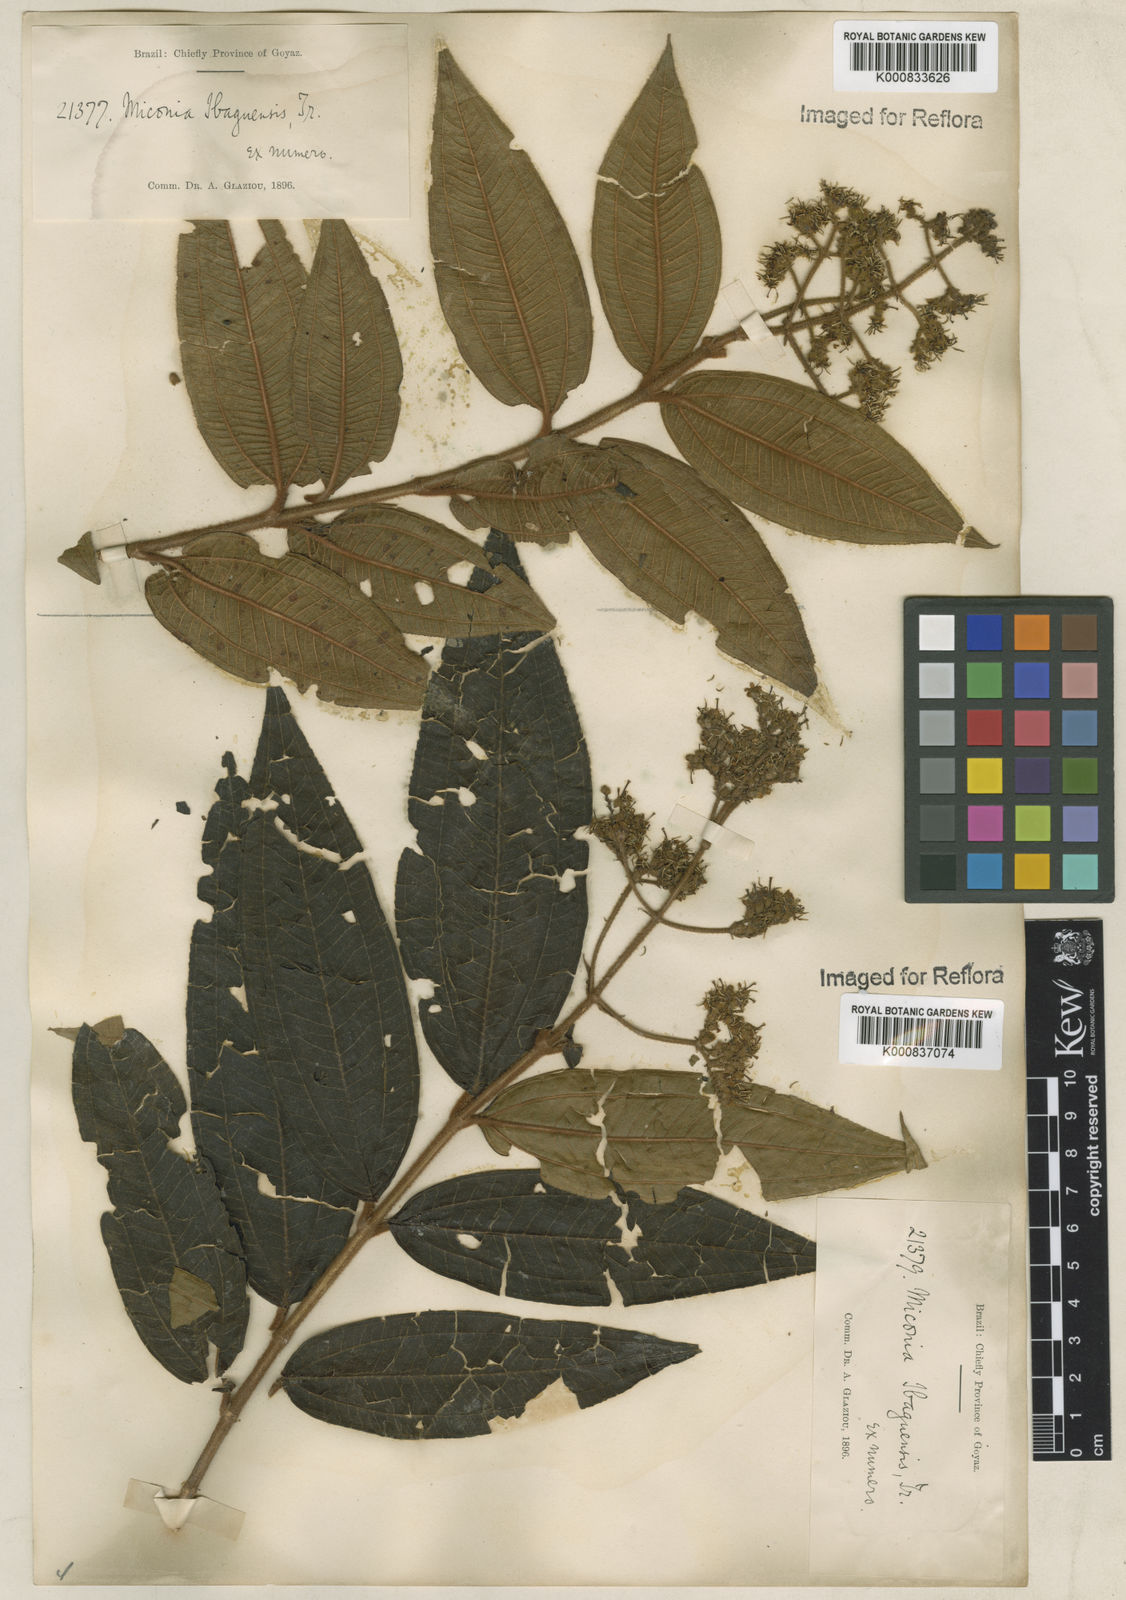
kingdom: Plantae
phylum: Tracheophyta
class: Magnoliopsida
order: Myrtales
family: Melastomataceae
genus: Miconia
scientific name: Miconia ibaguensis
